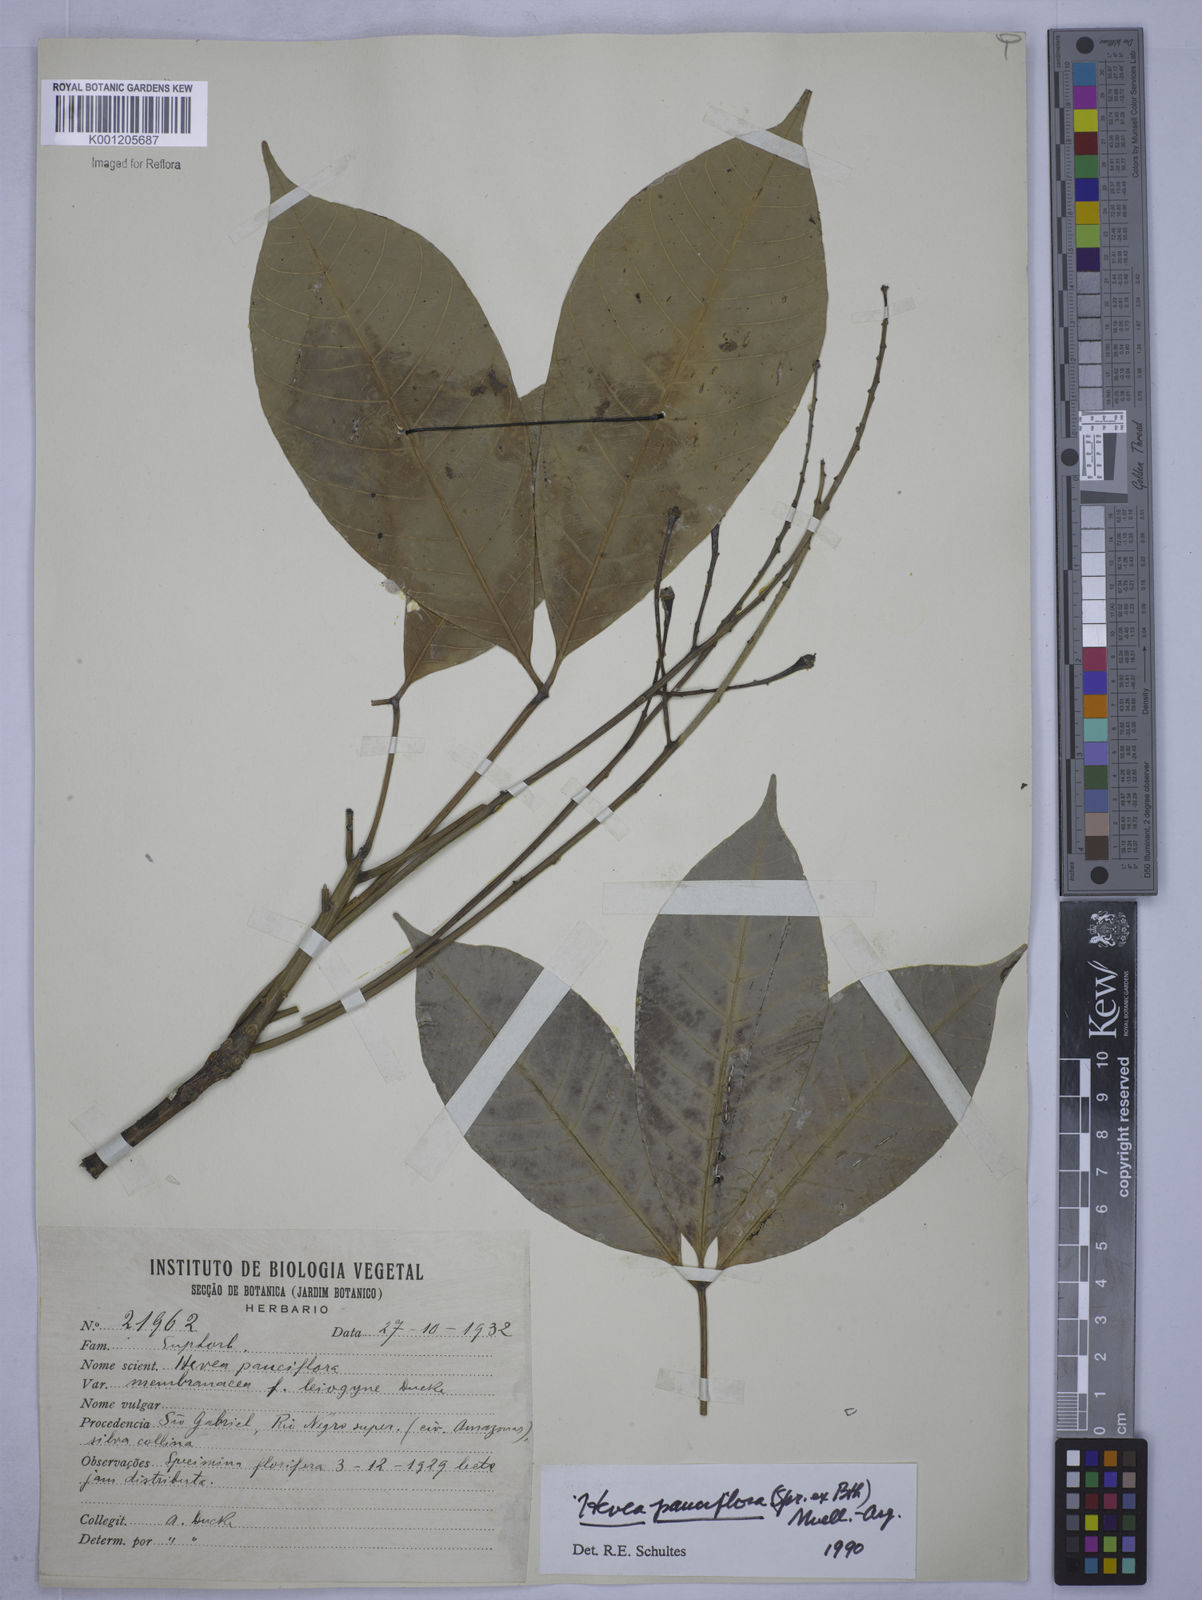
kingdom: Plantae
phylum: Tracheophyta
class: Magnoliopsida
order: Malpighiales
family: Euphorbiaceae
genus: Hevea
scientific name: Hevea pauciflora
